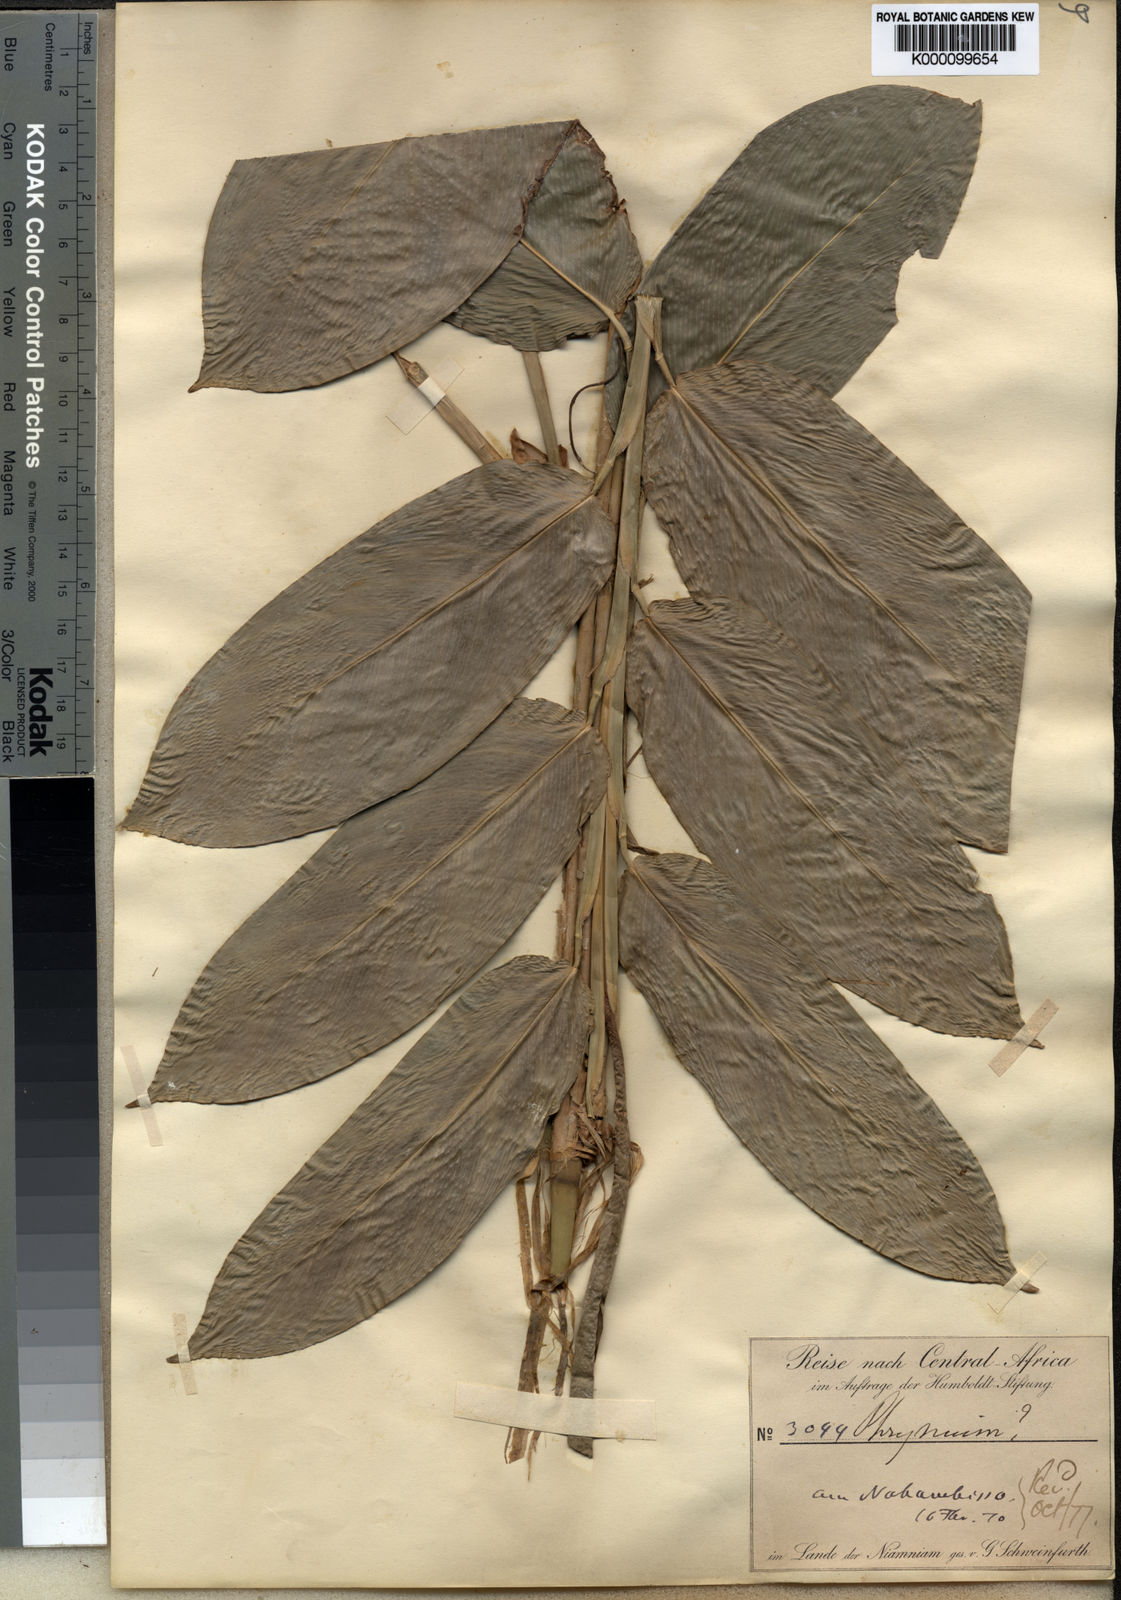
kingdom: Plantae
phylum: Tracheophyta
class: Liliopsida
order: Zingiberales
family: Marantaceae
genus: Trachyphrynium
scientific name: Trachyphrynium braunianum
